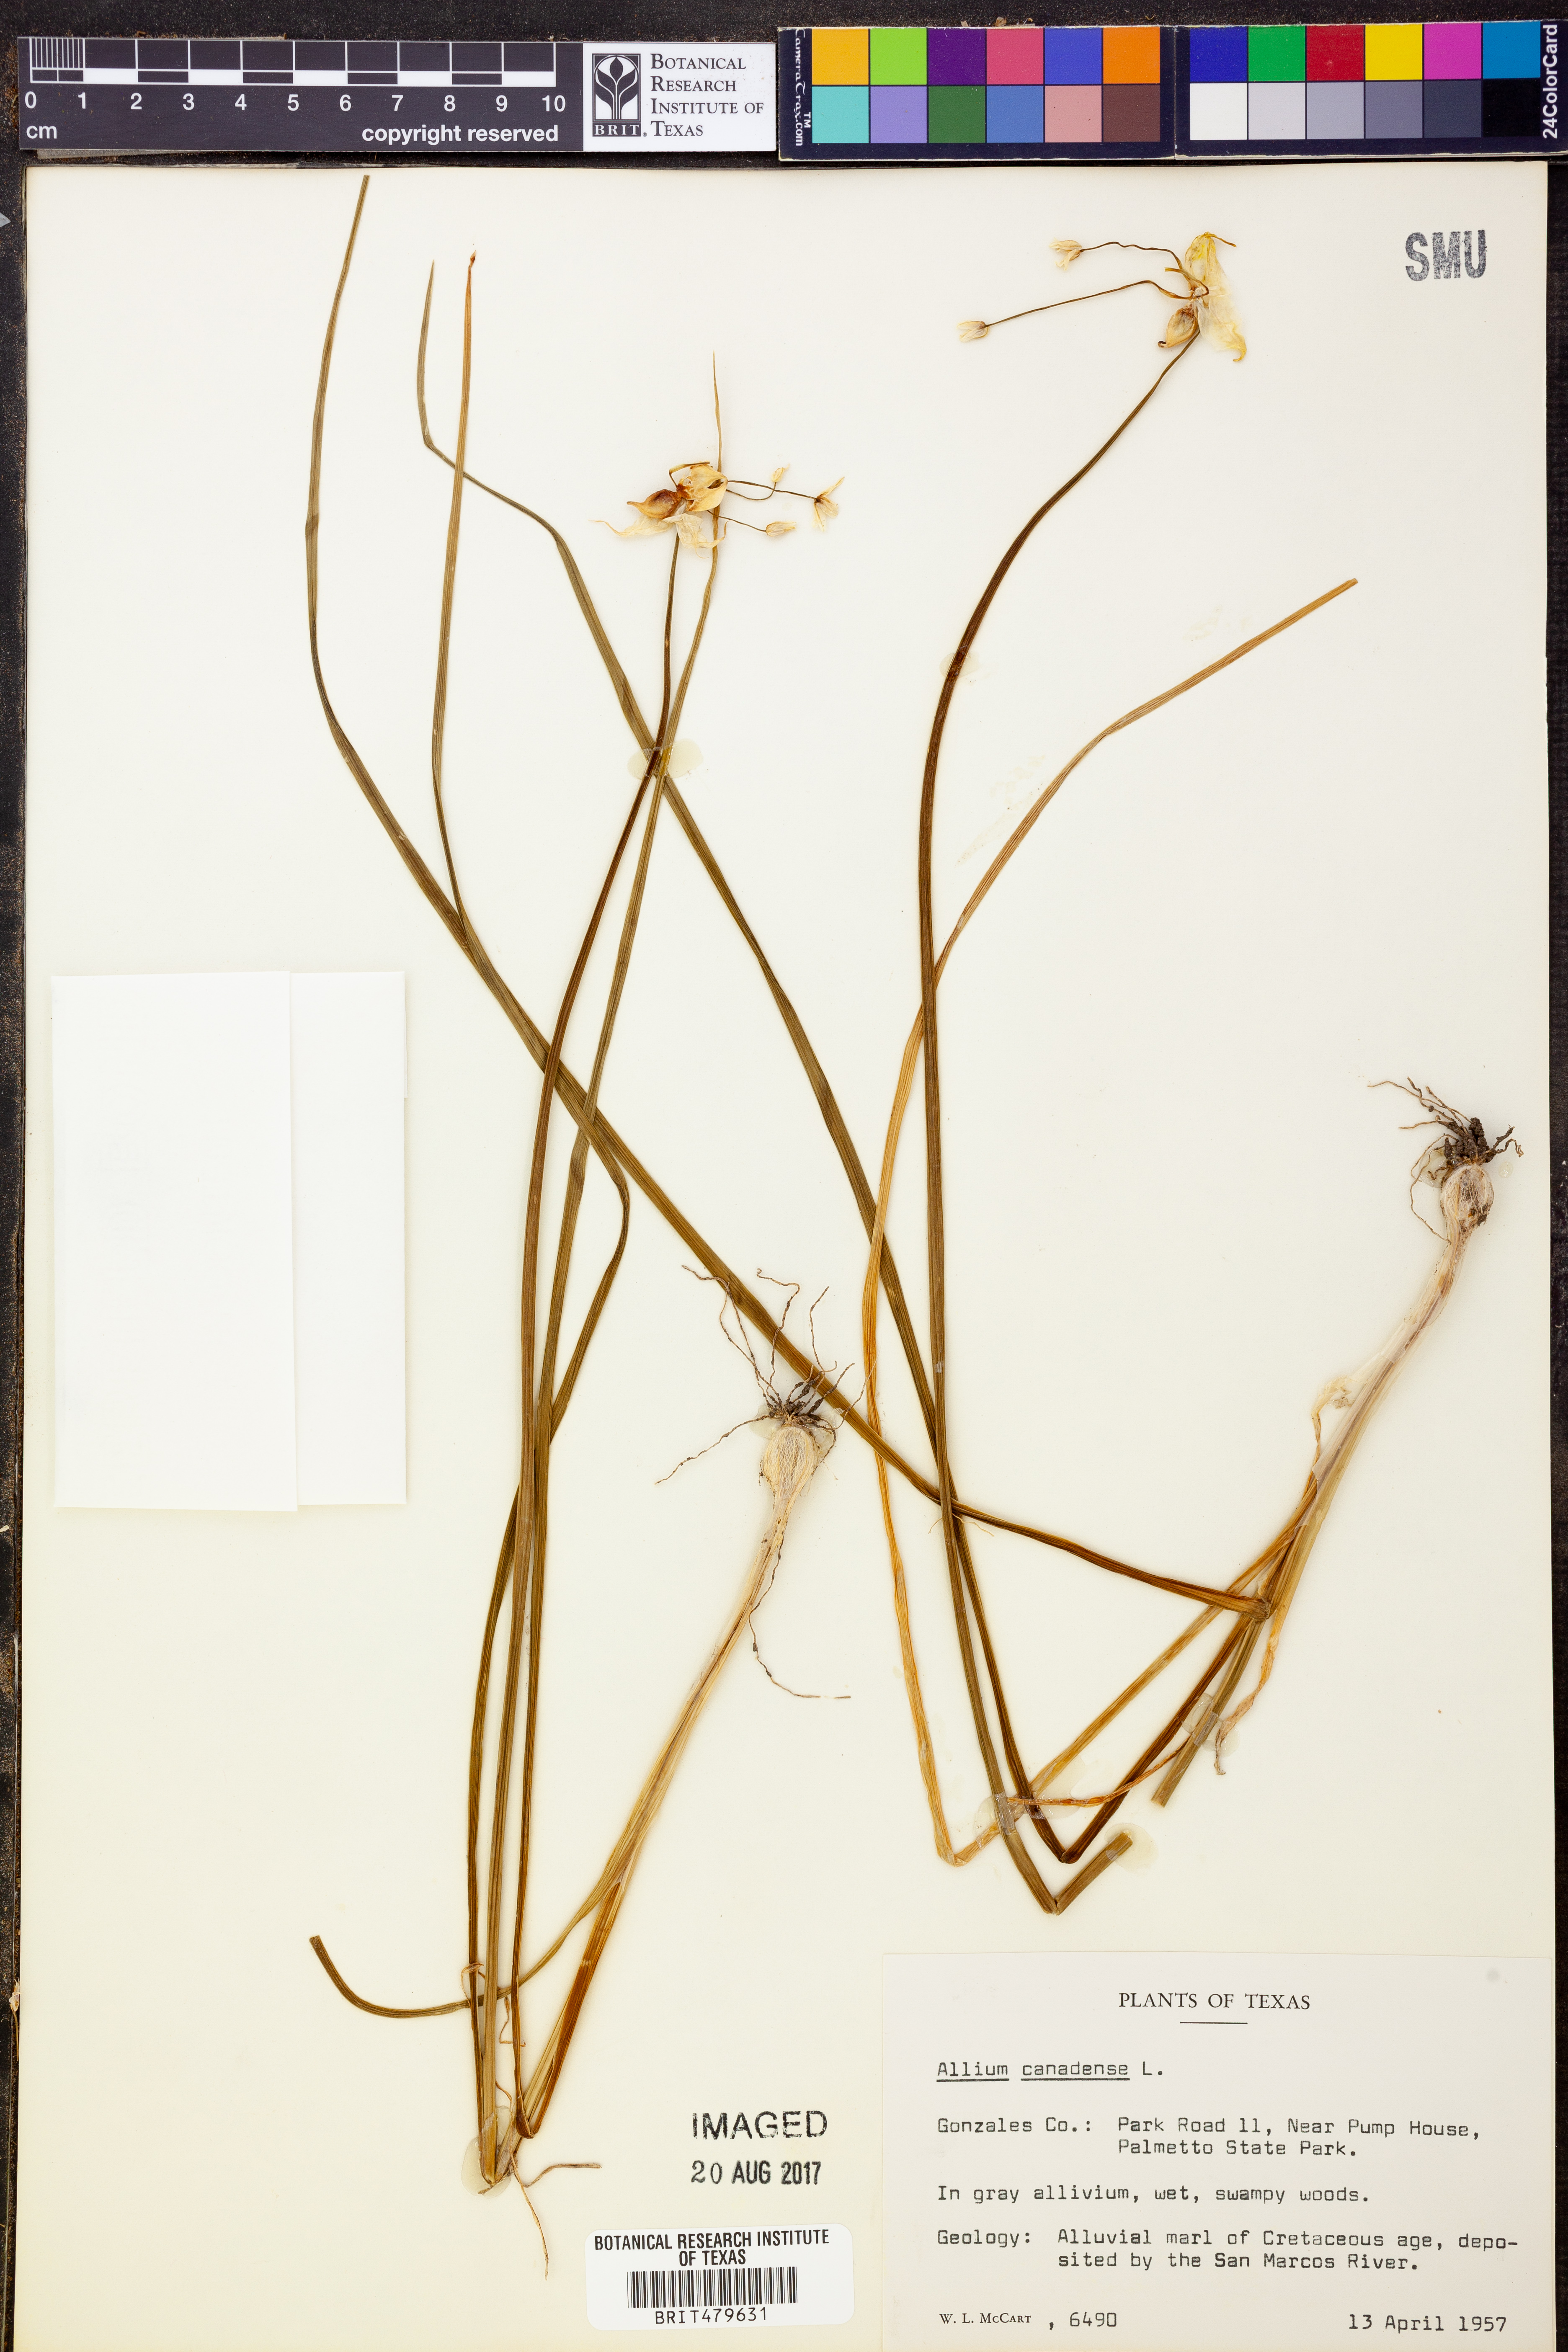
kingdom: Plantae
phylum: Tracheophyta
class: Liliopsida
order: Asparagales
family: Amaryllidaceae
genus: Allium
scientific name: Allium canadense
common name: Meadow garlic
